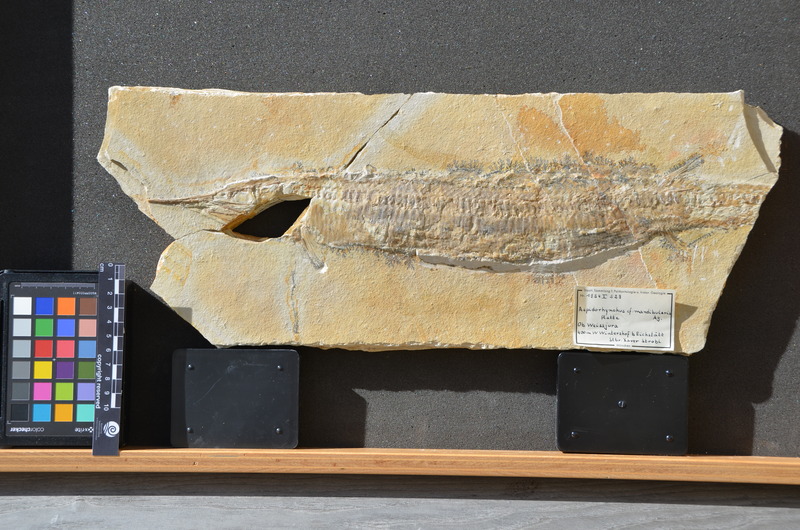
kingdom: Animalia
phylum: Chordata
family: Aspidorhynchidae
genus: Aspidorhynchus
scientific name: Aspidorhynchus acutirostris
